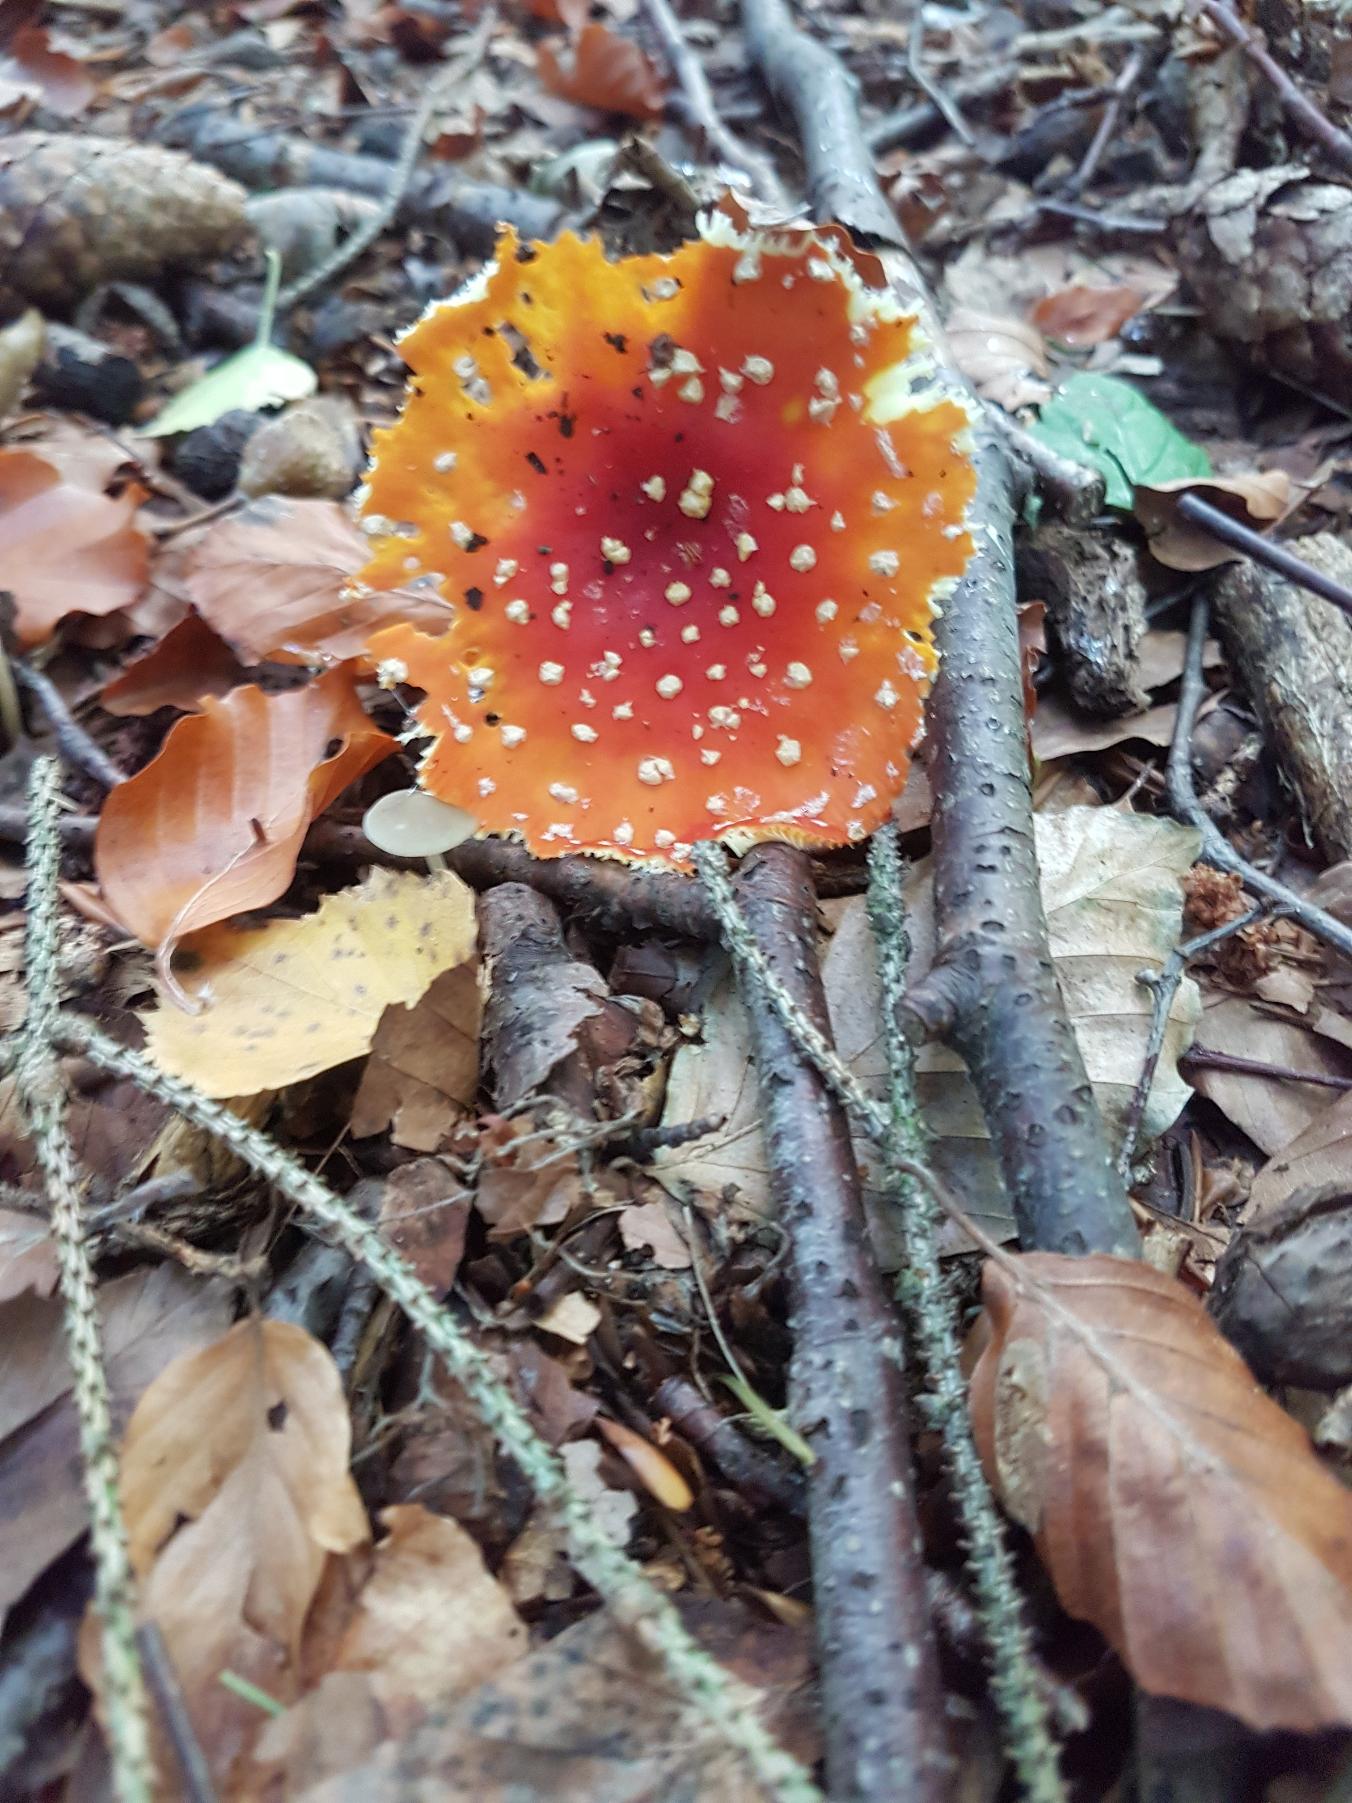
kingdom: Fungi
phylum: Basidiomycota
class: Agaricomycetes
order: Agaricales
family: Amanitaceae
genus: Amanita
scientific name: Amanita muscaria
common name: Rød fluesvamp
